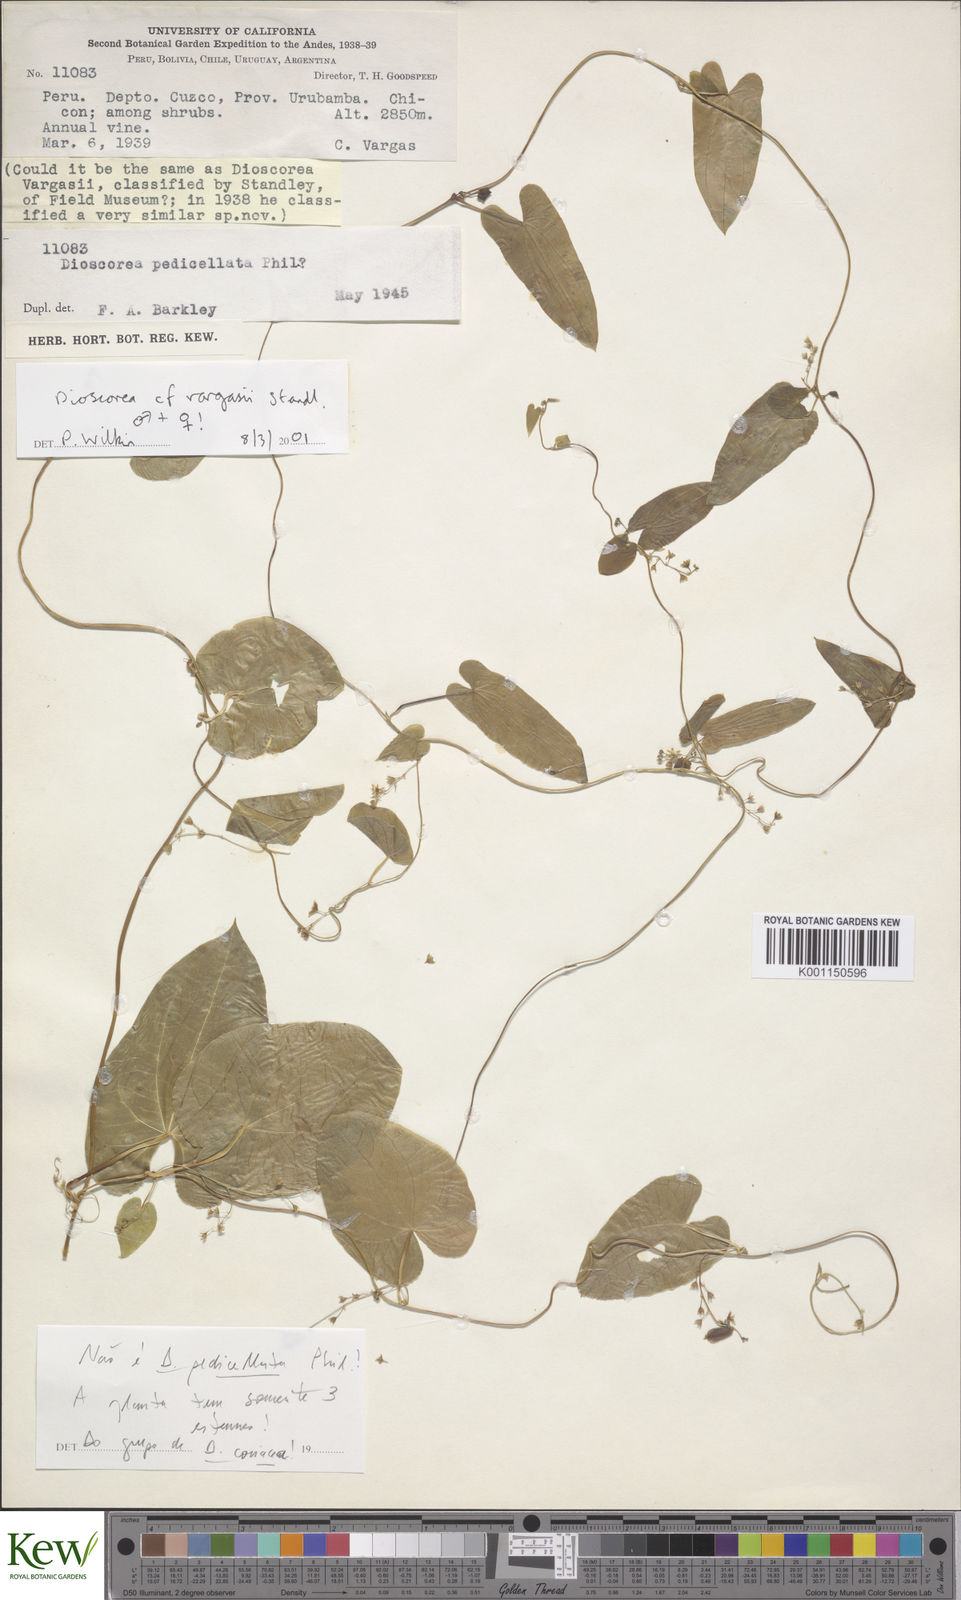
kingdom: Plantae
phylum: Tracheophyta
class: Liliopsida
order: Dioscoreales
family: Dioscoreaceae
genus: Dioscorea
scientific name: Dioscorea incayensis
